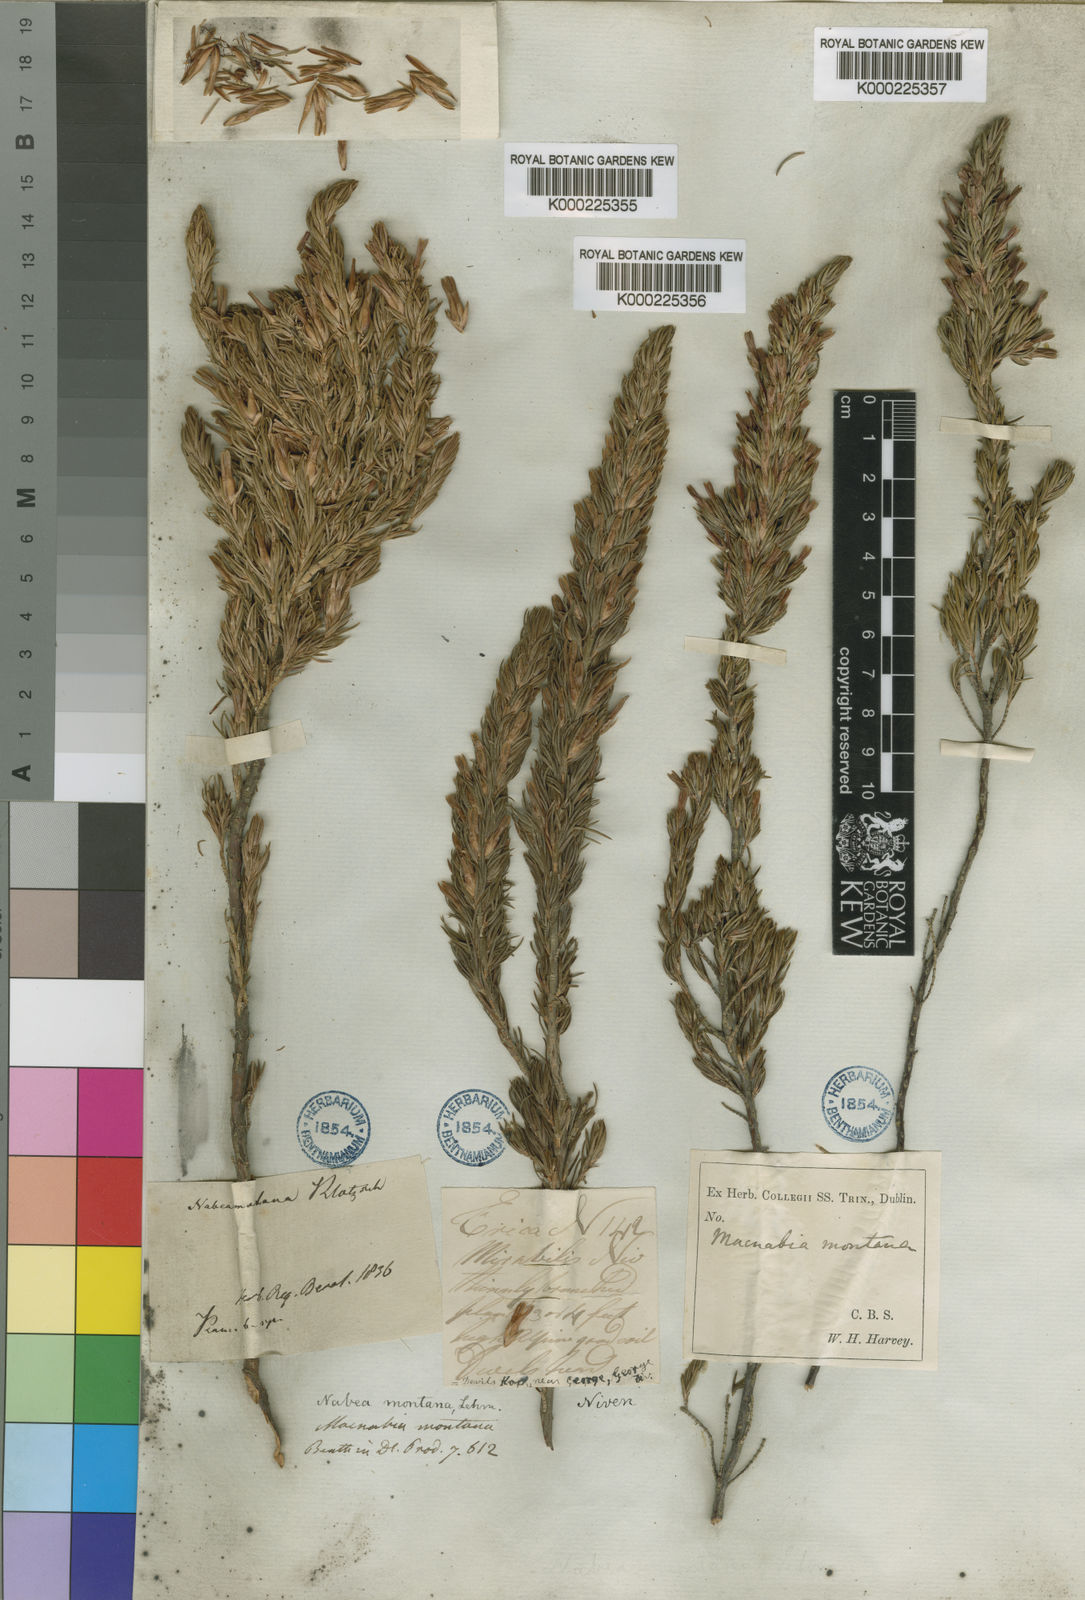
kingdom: Plantae
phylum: Tracheophyta
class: Magnoliopsida
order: Ericales
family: Ericaceae
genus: Erica
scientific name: Erica nabea
